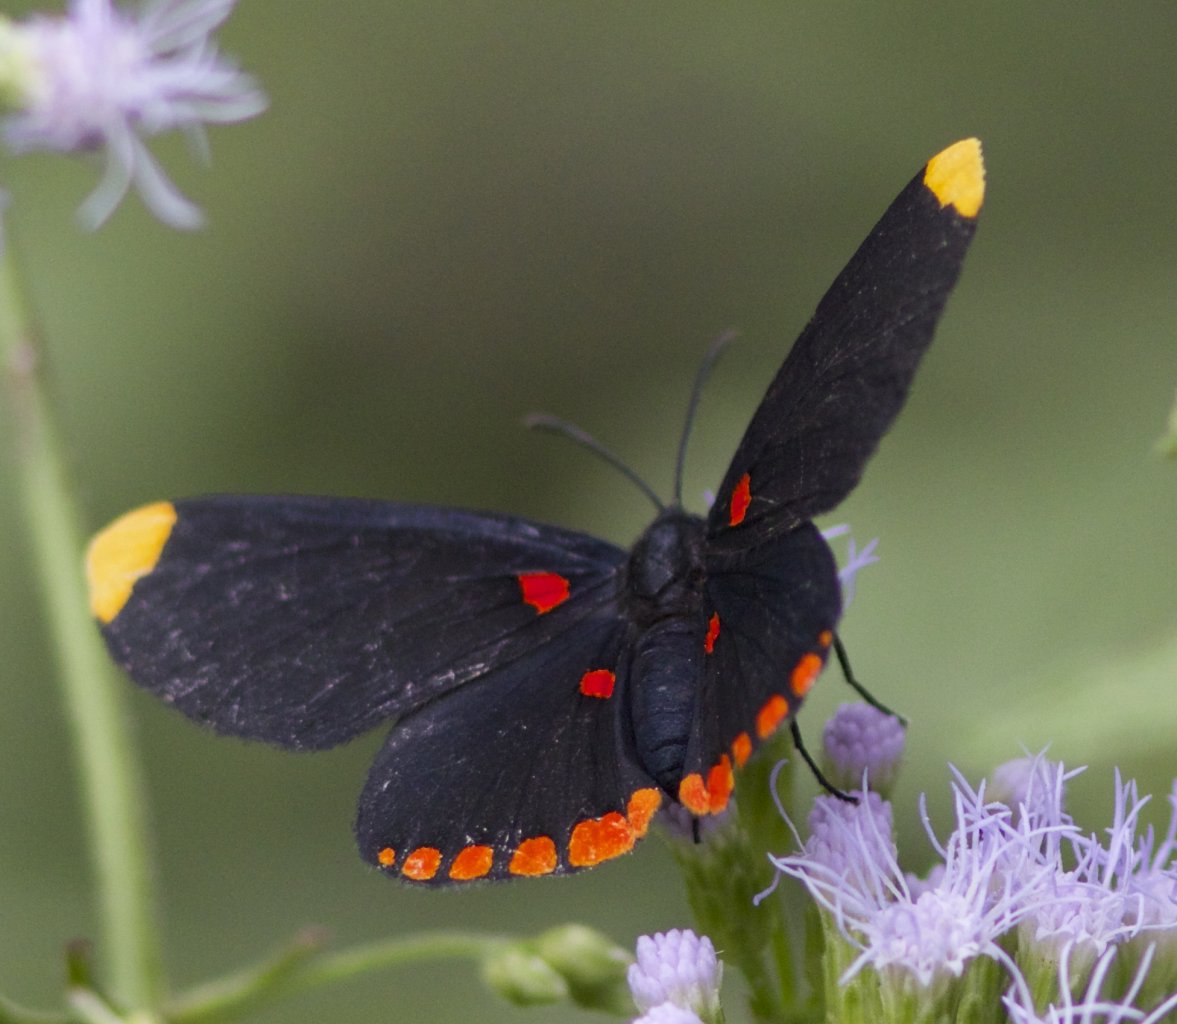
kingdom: Animalia
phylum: Arthropoda
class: Insecta
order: Lepidoptera
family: Lycaenidae
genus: Melanis
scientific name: Melanis pixe
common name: Red-bordered Pixie
